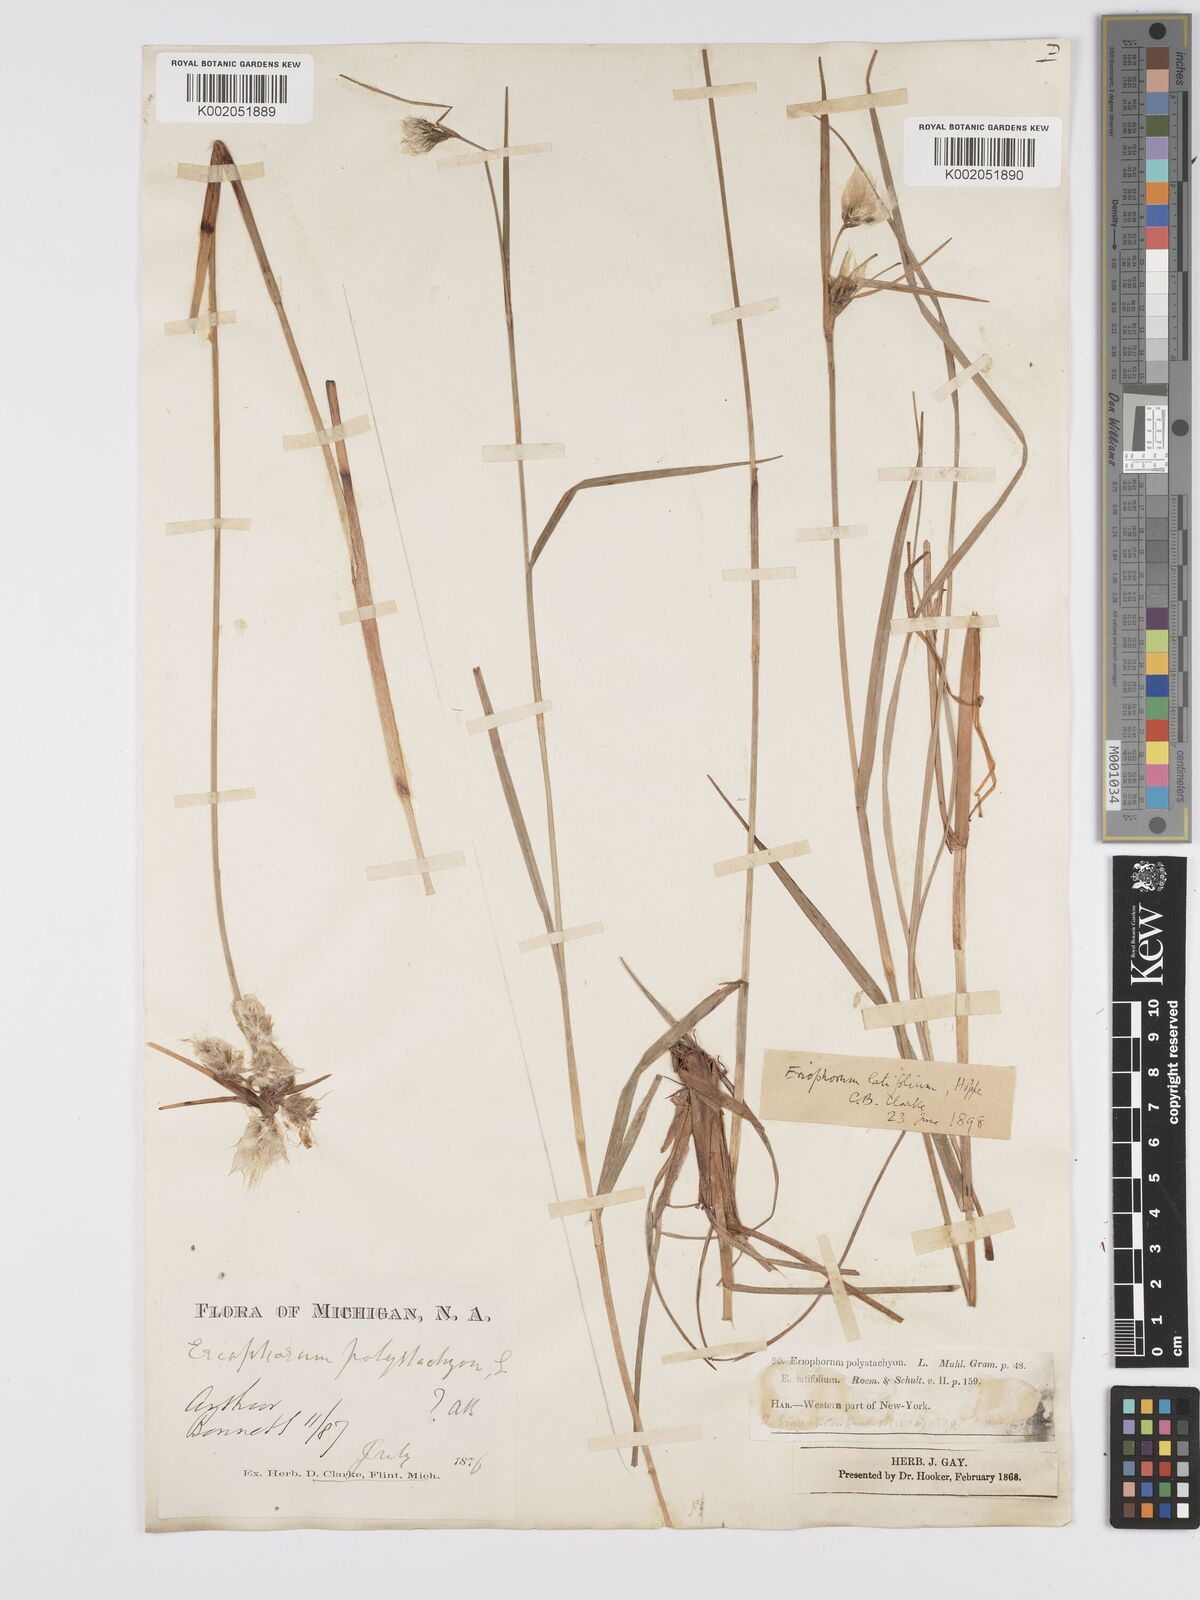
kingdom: Plantae
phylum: Tracheophyta
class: Liliopsida
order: Poales
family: Cyperaceae
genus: Eriophorum
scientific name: Eriophorum latifolium
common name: Broad-leaved cottongrass
